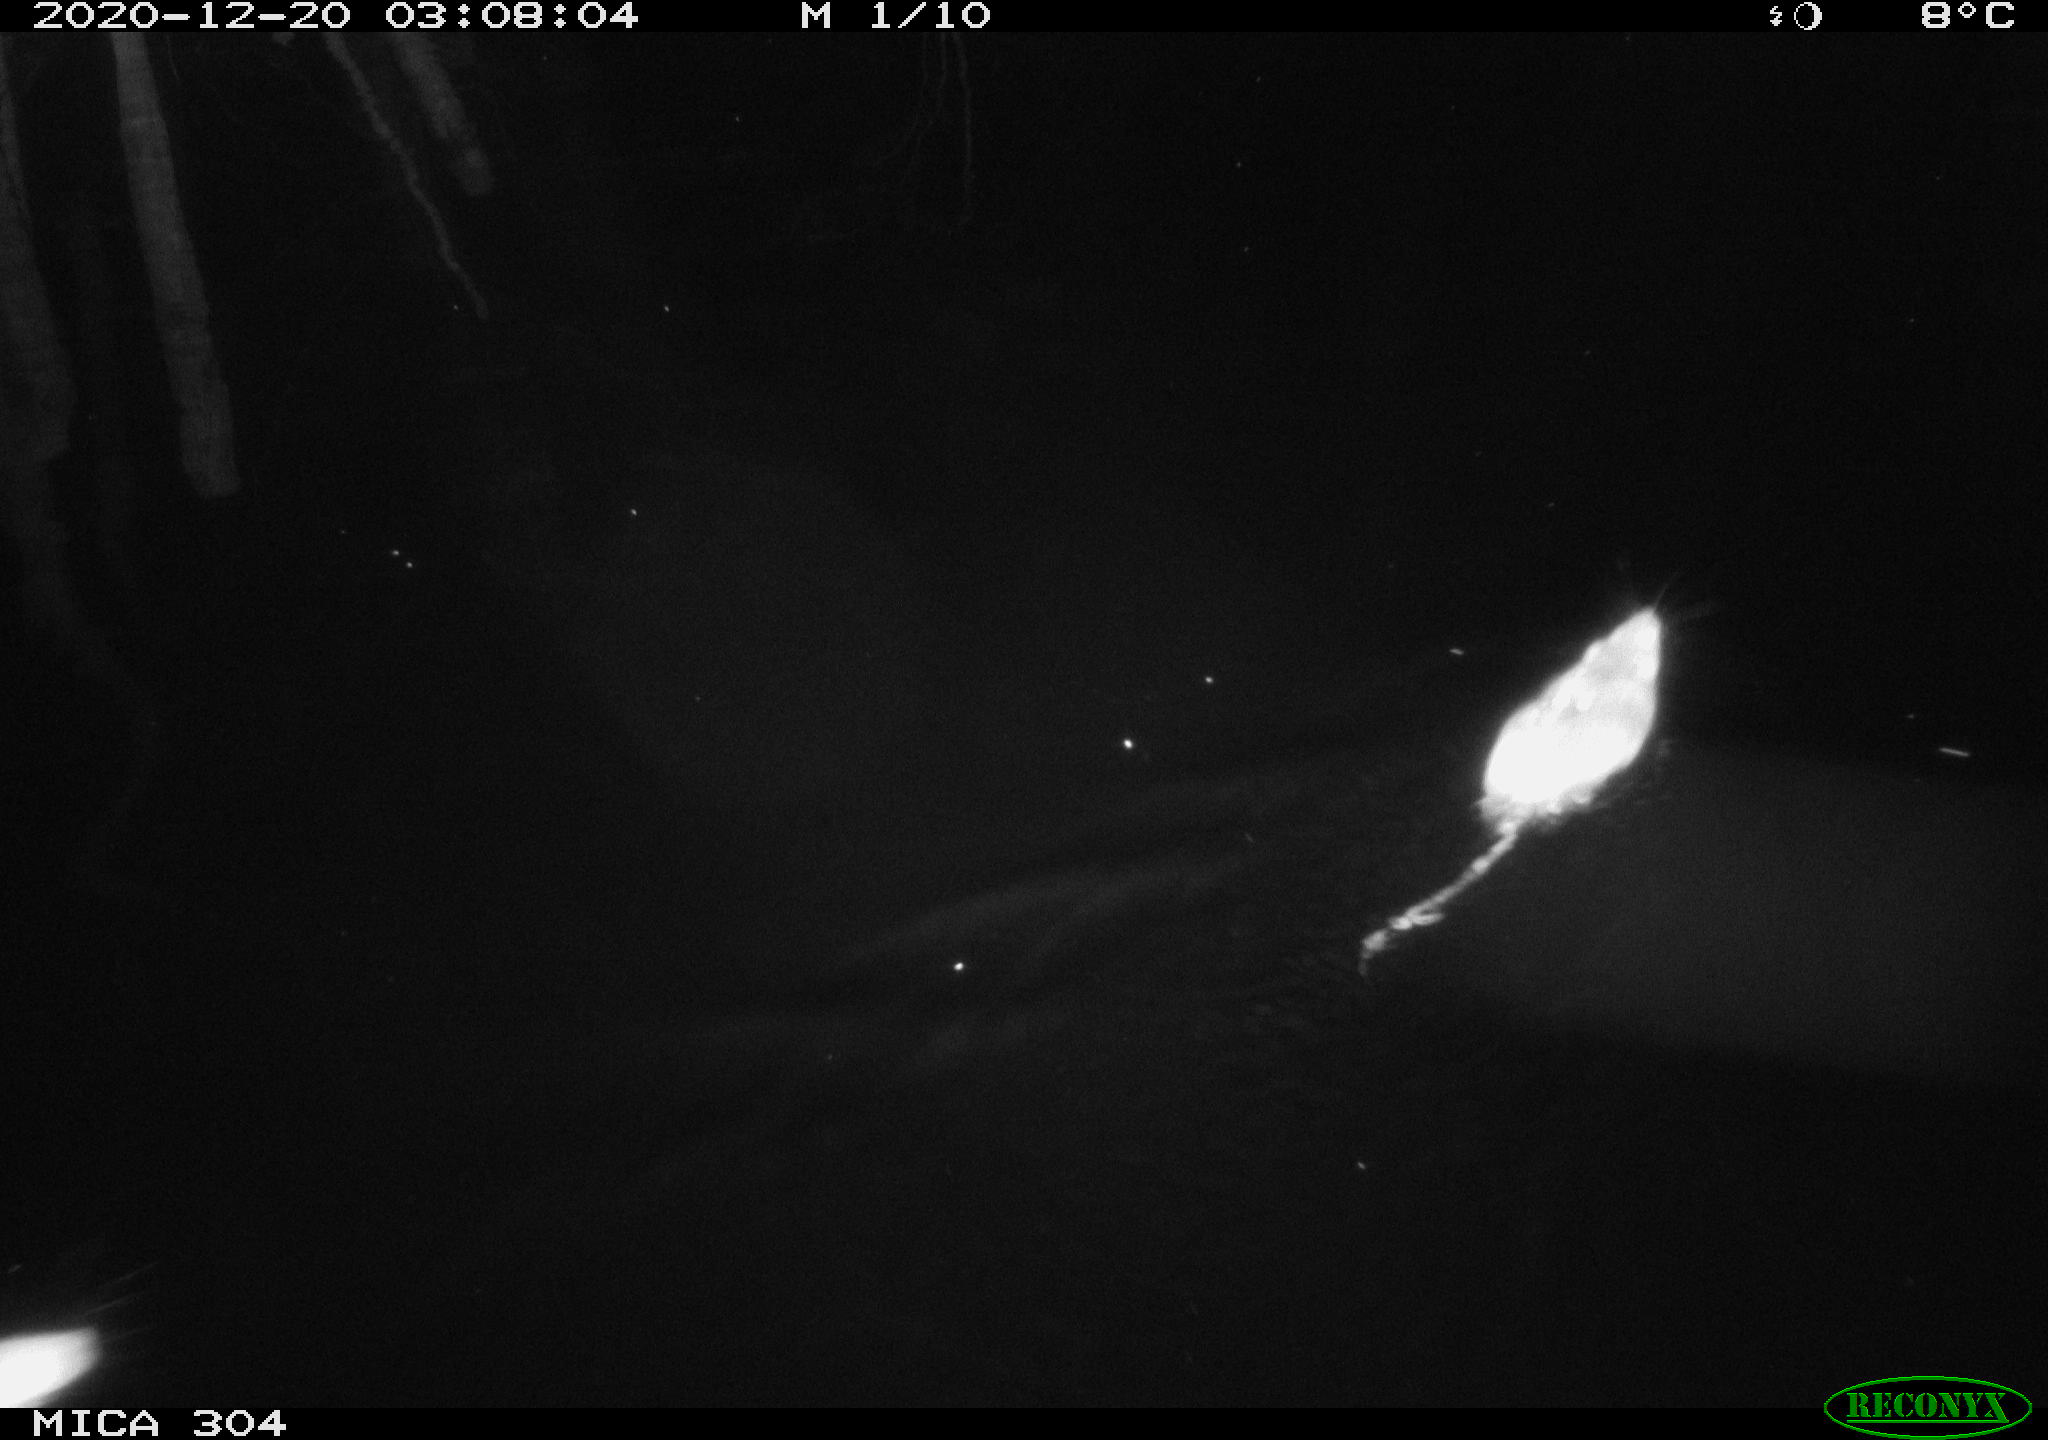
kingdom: Animalia
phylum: Chordata
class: Mammalia
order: Rodentia
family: Cricetidae
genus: Ondatra
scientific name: Ondatra zibethicus
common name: Muskrat
